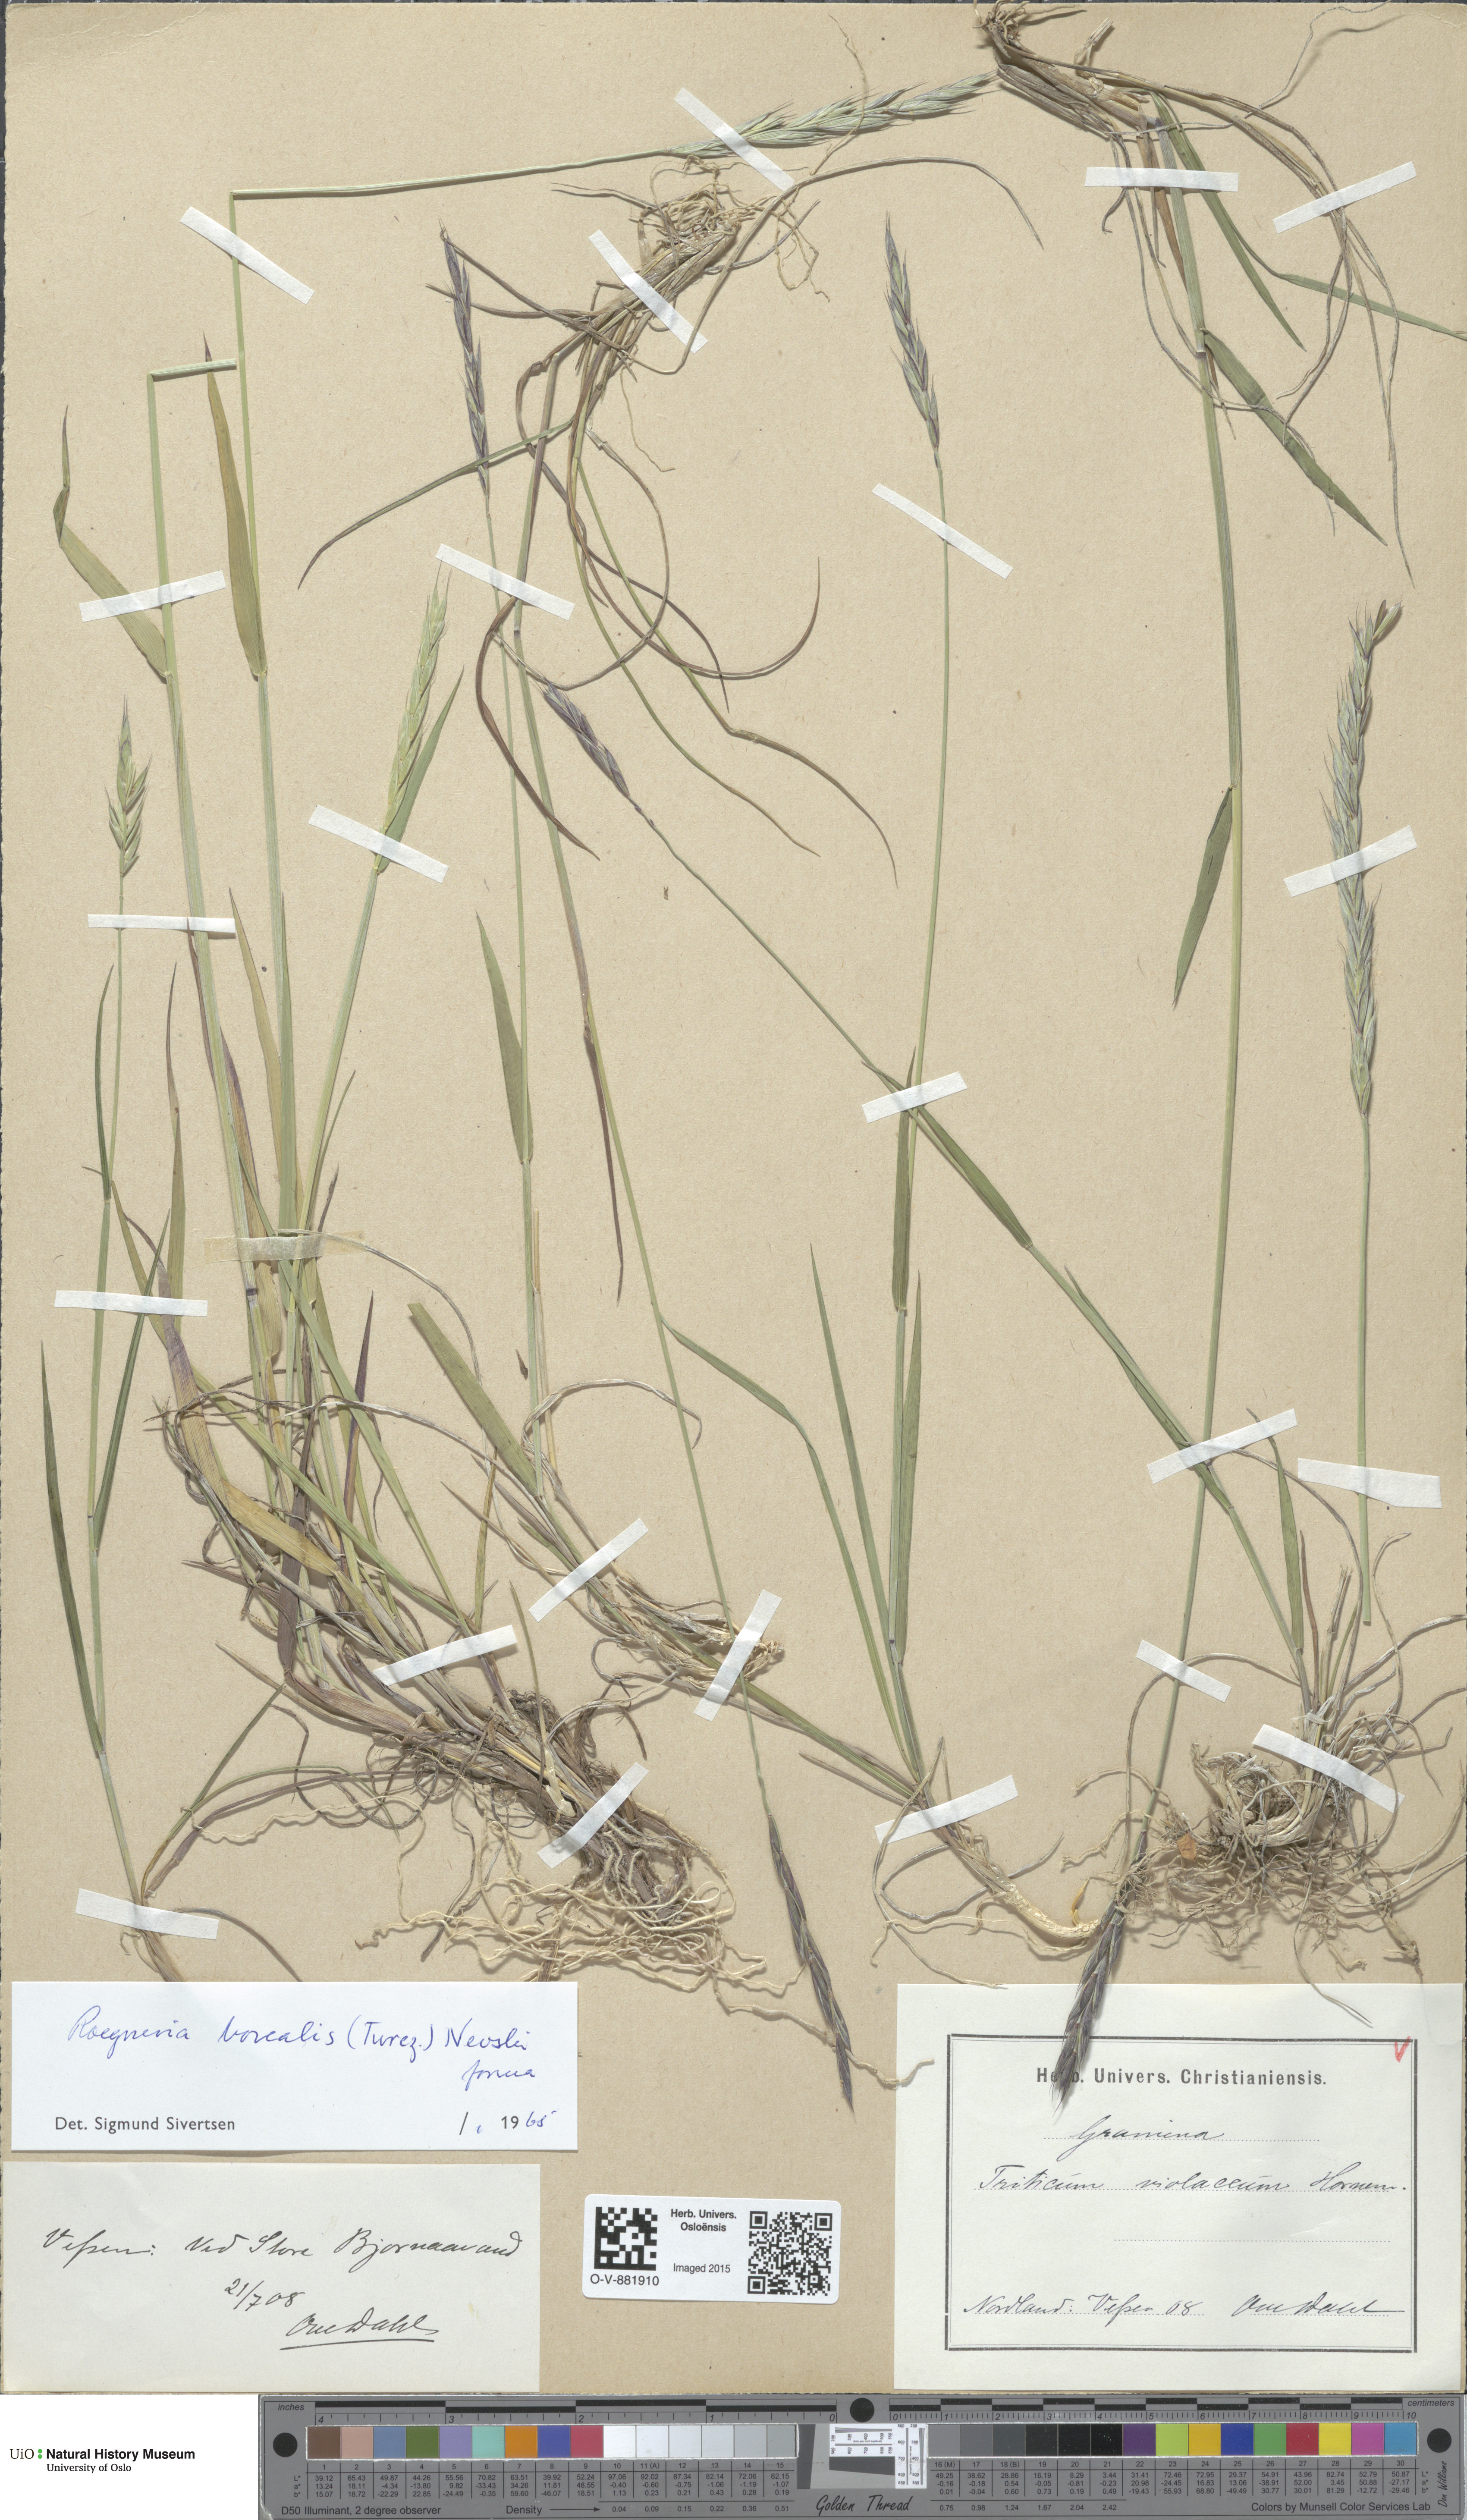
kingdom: Plantae
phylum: Tracheophyta
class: Liliopsida
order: Poales
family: Poaceae
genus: Elymus
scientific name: Elymus macrourus
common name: Northern wheatgrass
